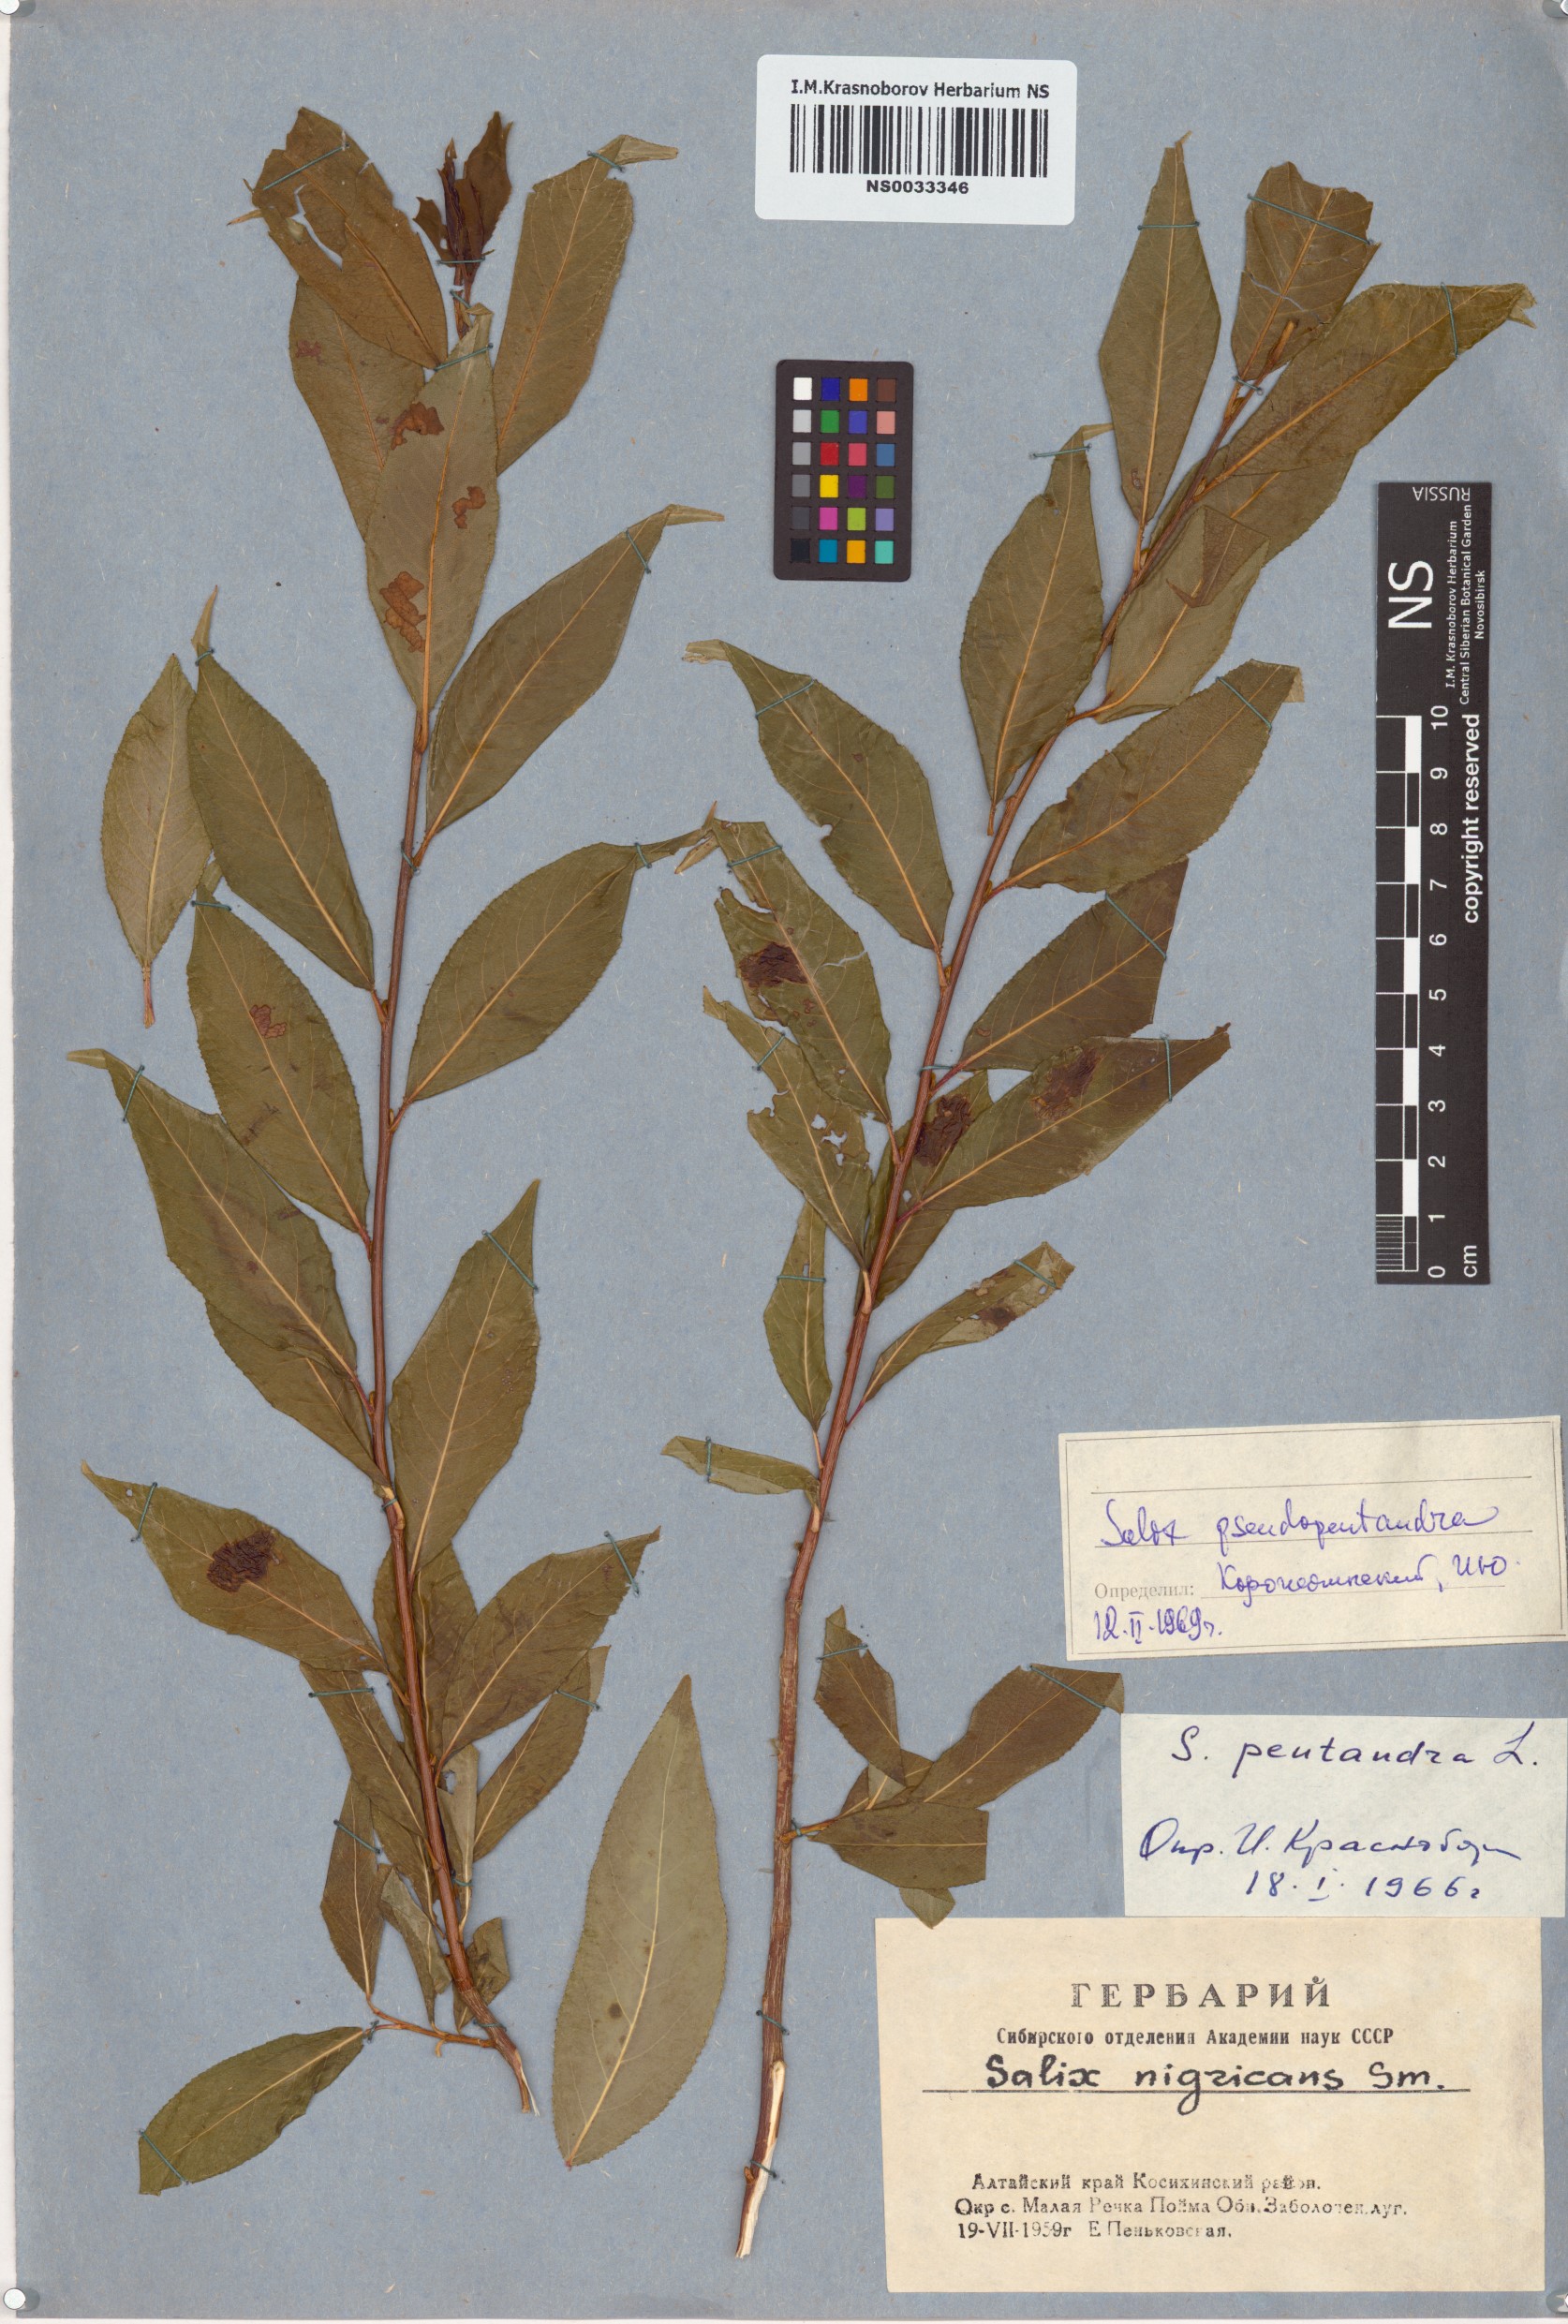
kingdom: Plantae
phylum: Tracheophyta
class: Magnoliopsida
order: Malpighiales
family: Salicaceae
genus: Salix
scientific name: Salix pseudopentandra
